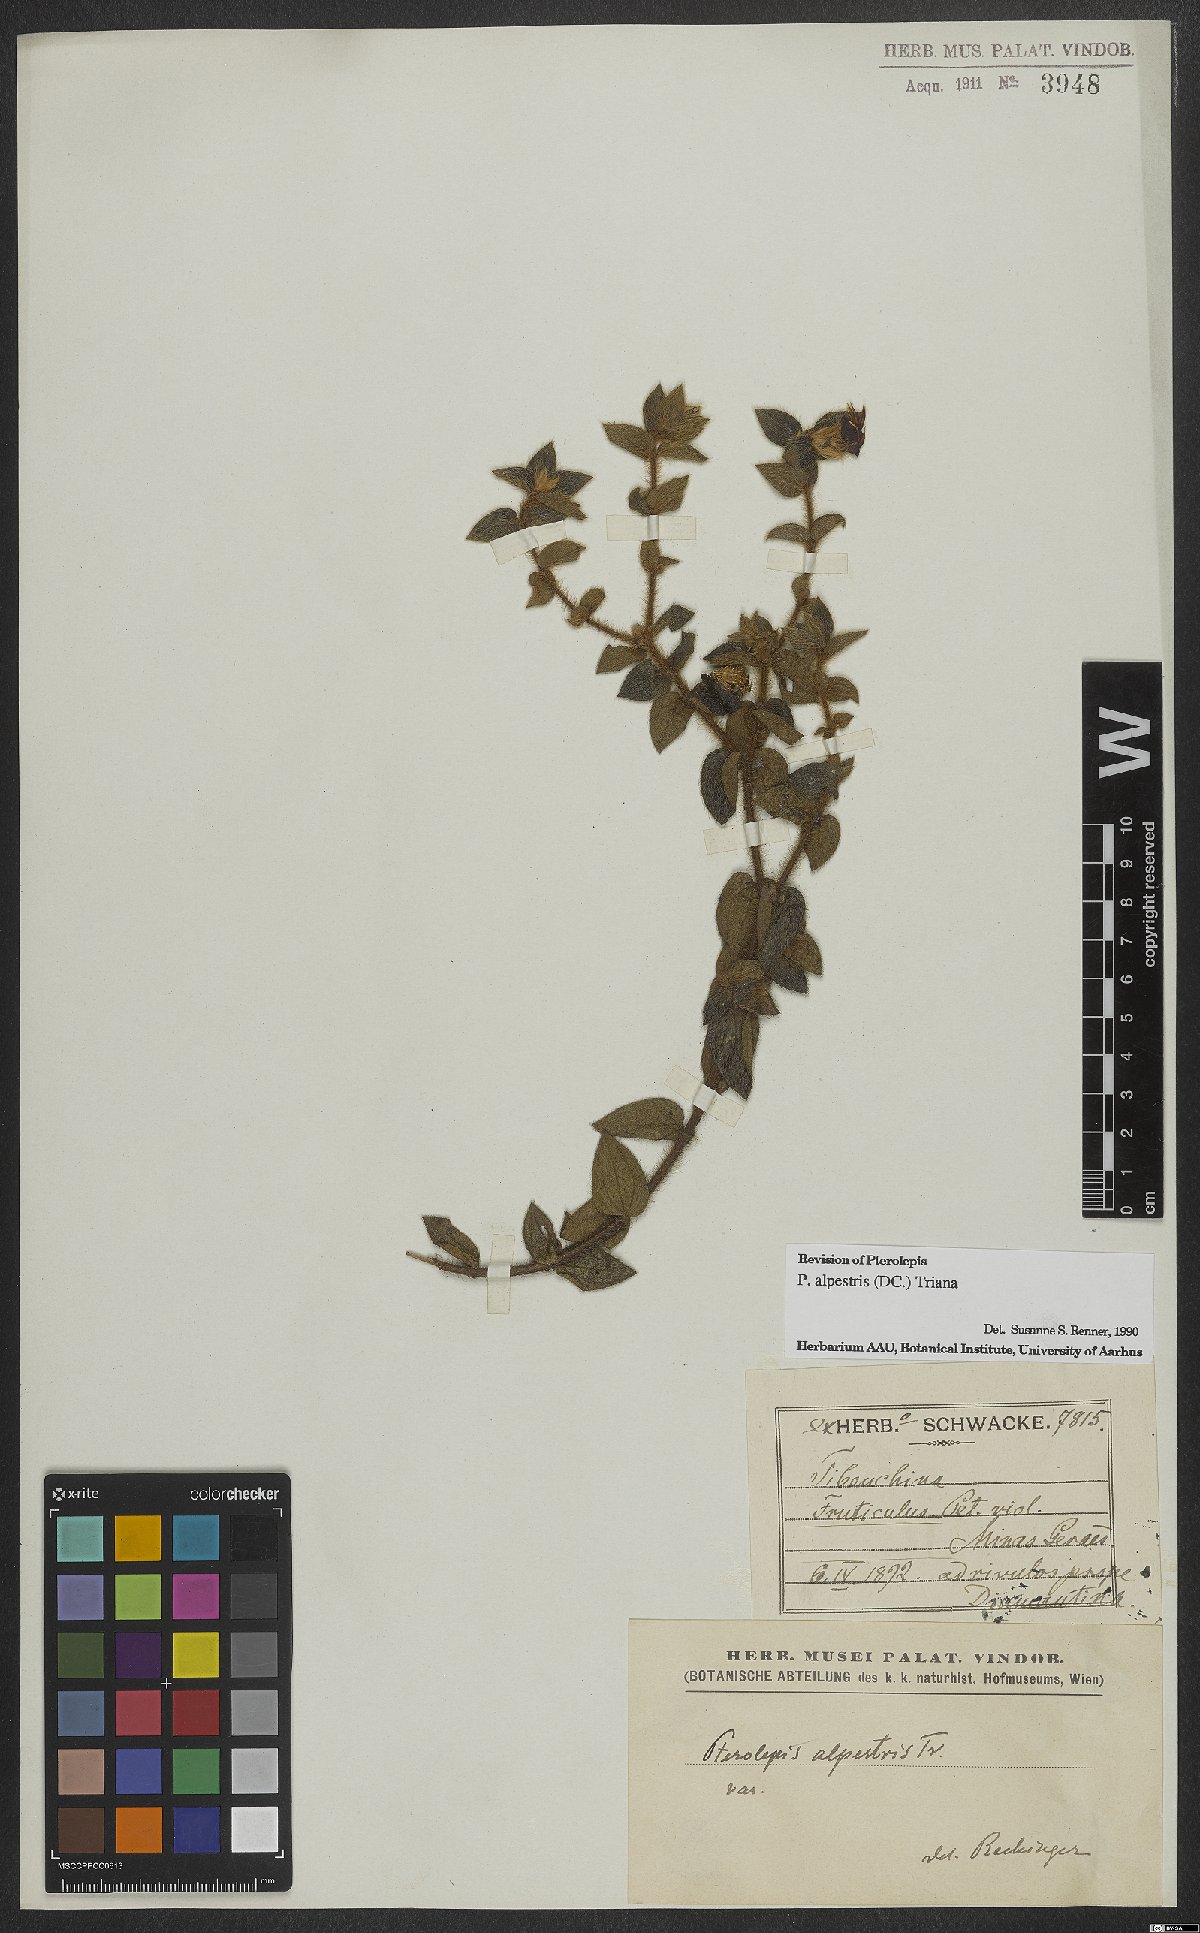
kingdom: Plantae
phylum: Tracheophyta
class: Magnoliopsida
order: Myrtales
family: Melastomataceae
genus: Pterolepis
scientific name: Pterolepis alpestris
